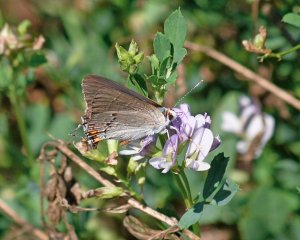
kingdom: Animalia
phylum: Arthropoda
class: Insecta
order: Lepidoptera
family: Lycaenidae
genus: Strymon
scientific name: Strymon melinus
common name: Gray Hairstreak
